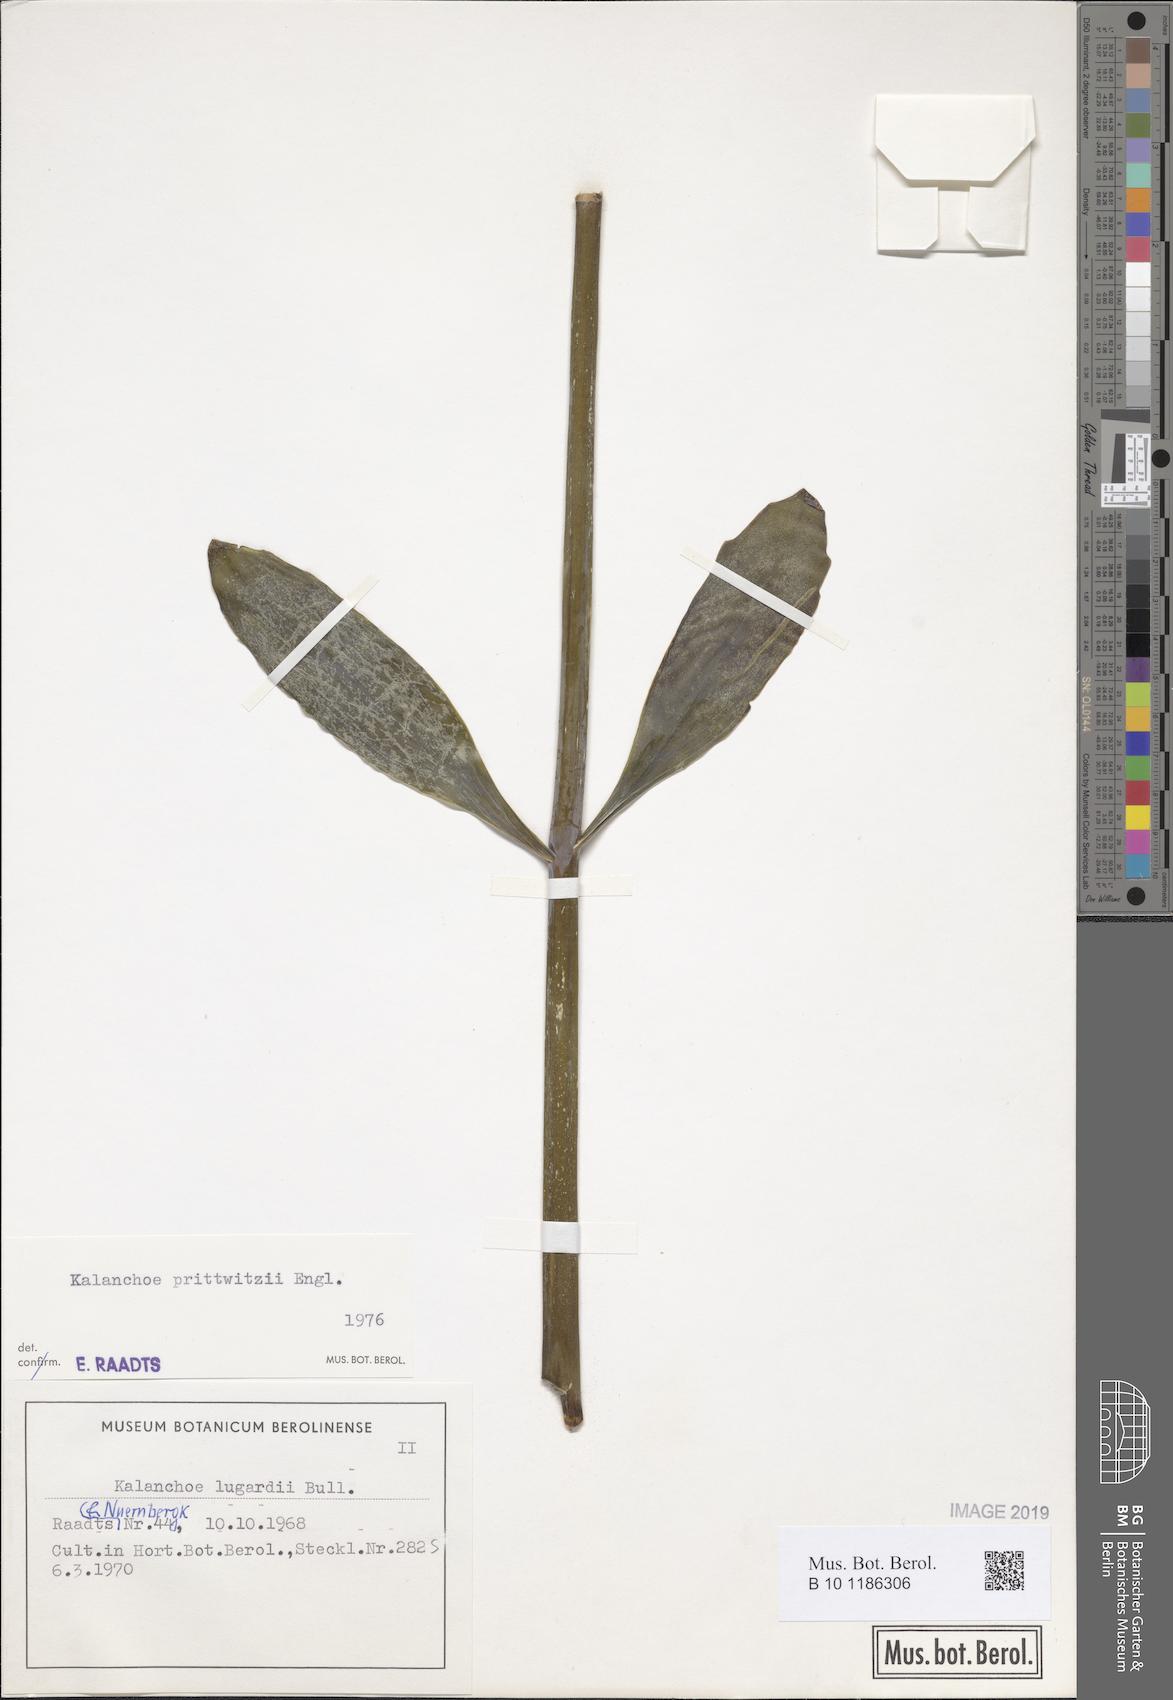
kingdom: Plantae
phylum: Tracheophyta
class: Magnoliopsida
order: Saxifragales
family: Crassulaceae
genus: Kalanchoe
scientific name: Kalanchoe prittwitzii
